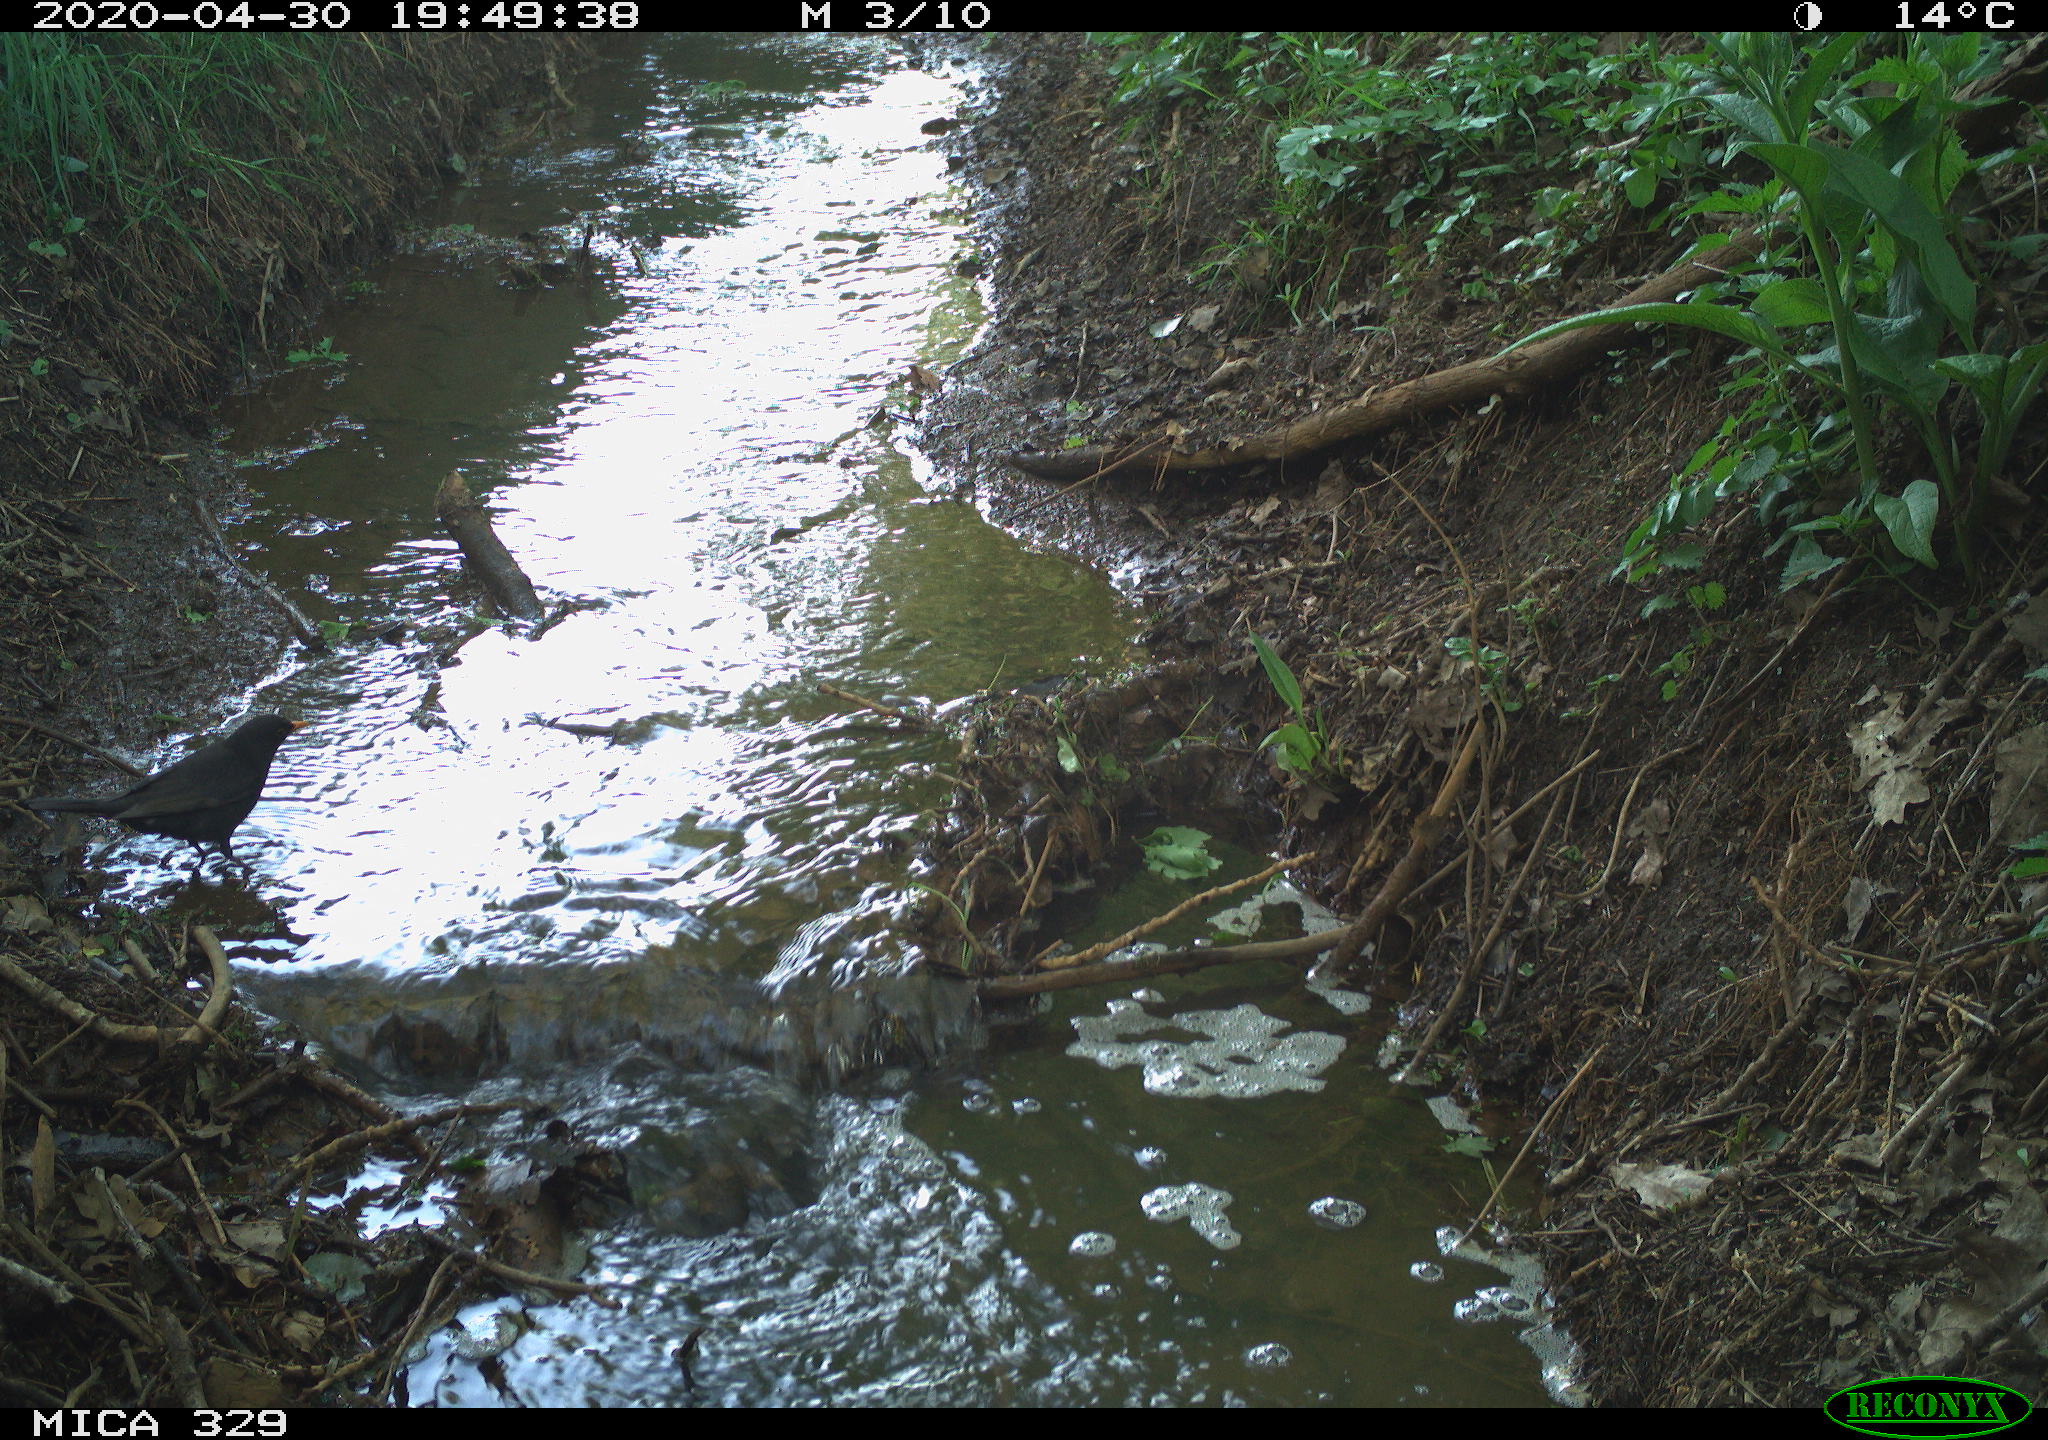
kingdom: Animalia
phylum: Chordata
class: Aves
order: Passeriformes
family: Turdidae
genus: Turdus
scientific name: Turdus merula
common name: Common blackbird
